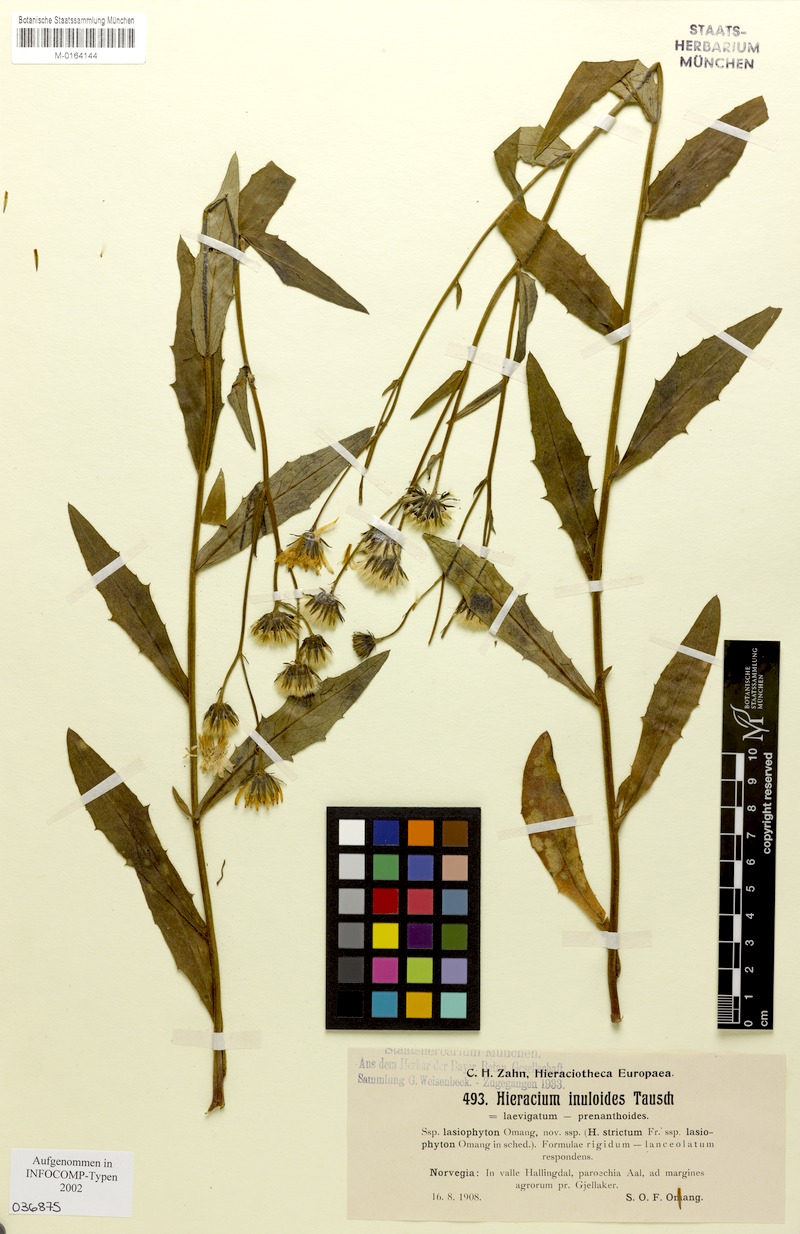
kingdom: Plantae
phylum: Tracheophyta
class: Magnoliopsida
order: Asterales
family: Asteraceae
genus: Hieracium
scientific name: Hieracium inuloides
